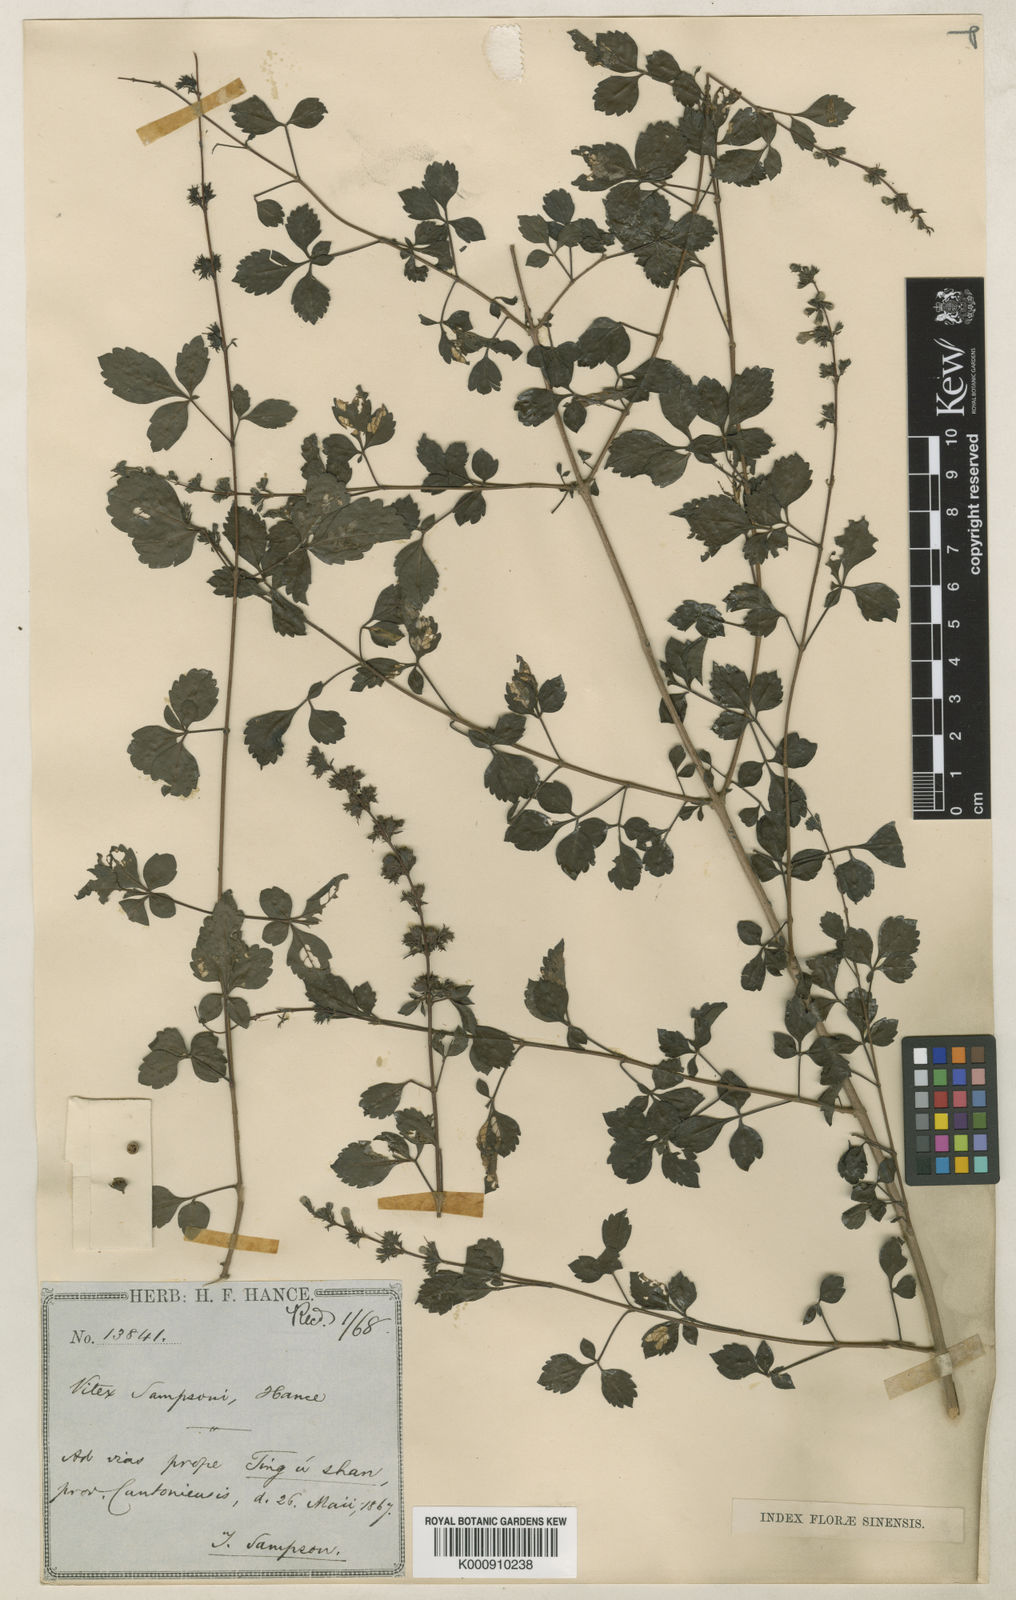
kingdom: Plantae
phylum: Tracheophyta
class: Magnoliopsida
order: Lamiales
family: Lamiaceae
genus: Vitex
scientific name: Vitex sampsonii
